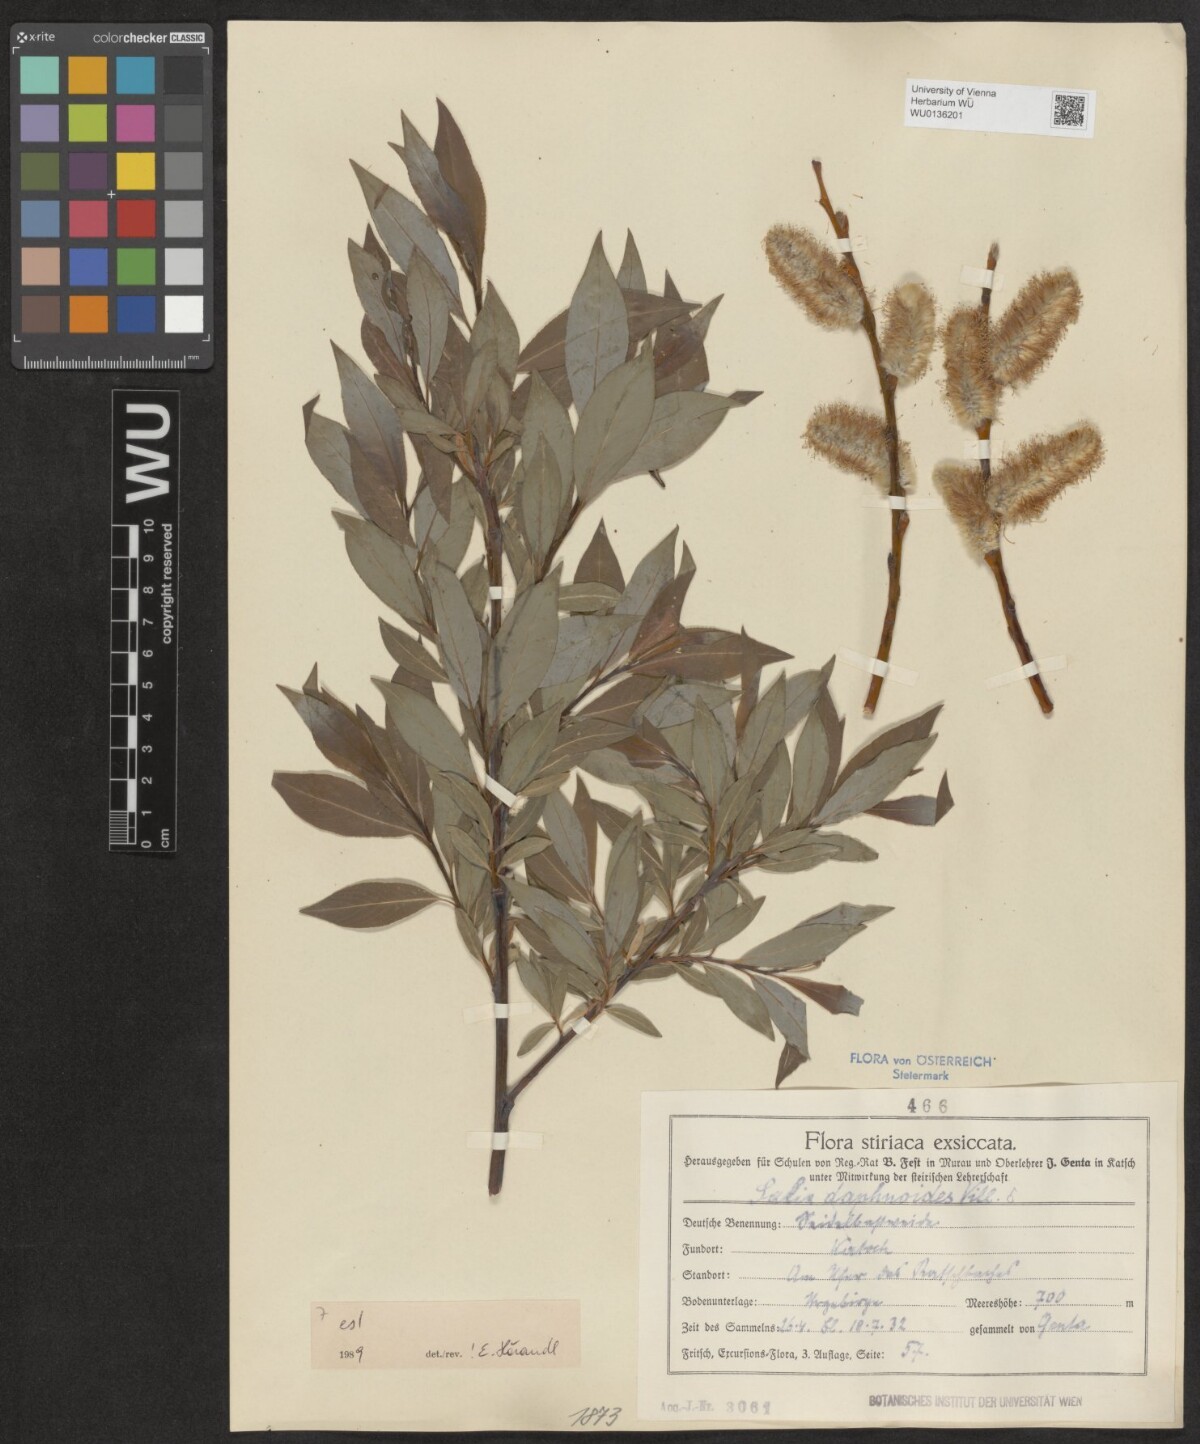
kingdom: Plantae
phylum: Tracheophyta
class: Magnoliopsida
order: Malpighiales
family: Salicaceae
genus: Salix
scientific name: Salix daphnoides
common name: European violet-willow
